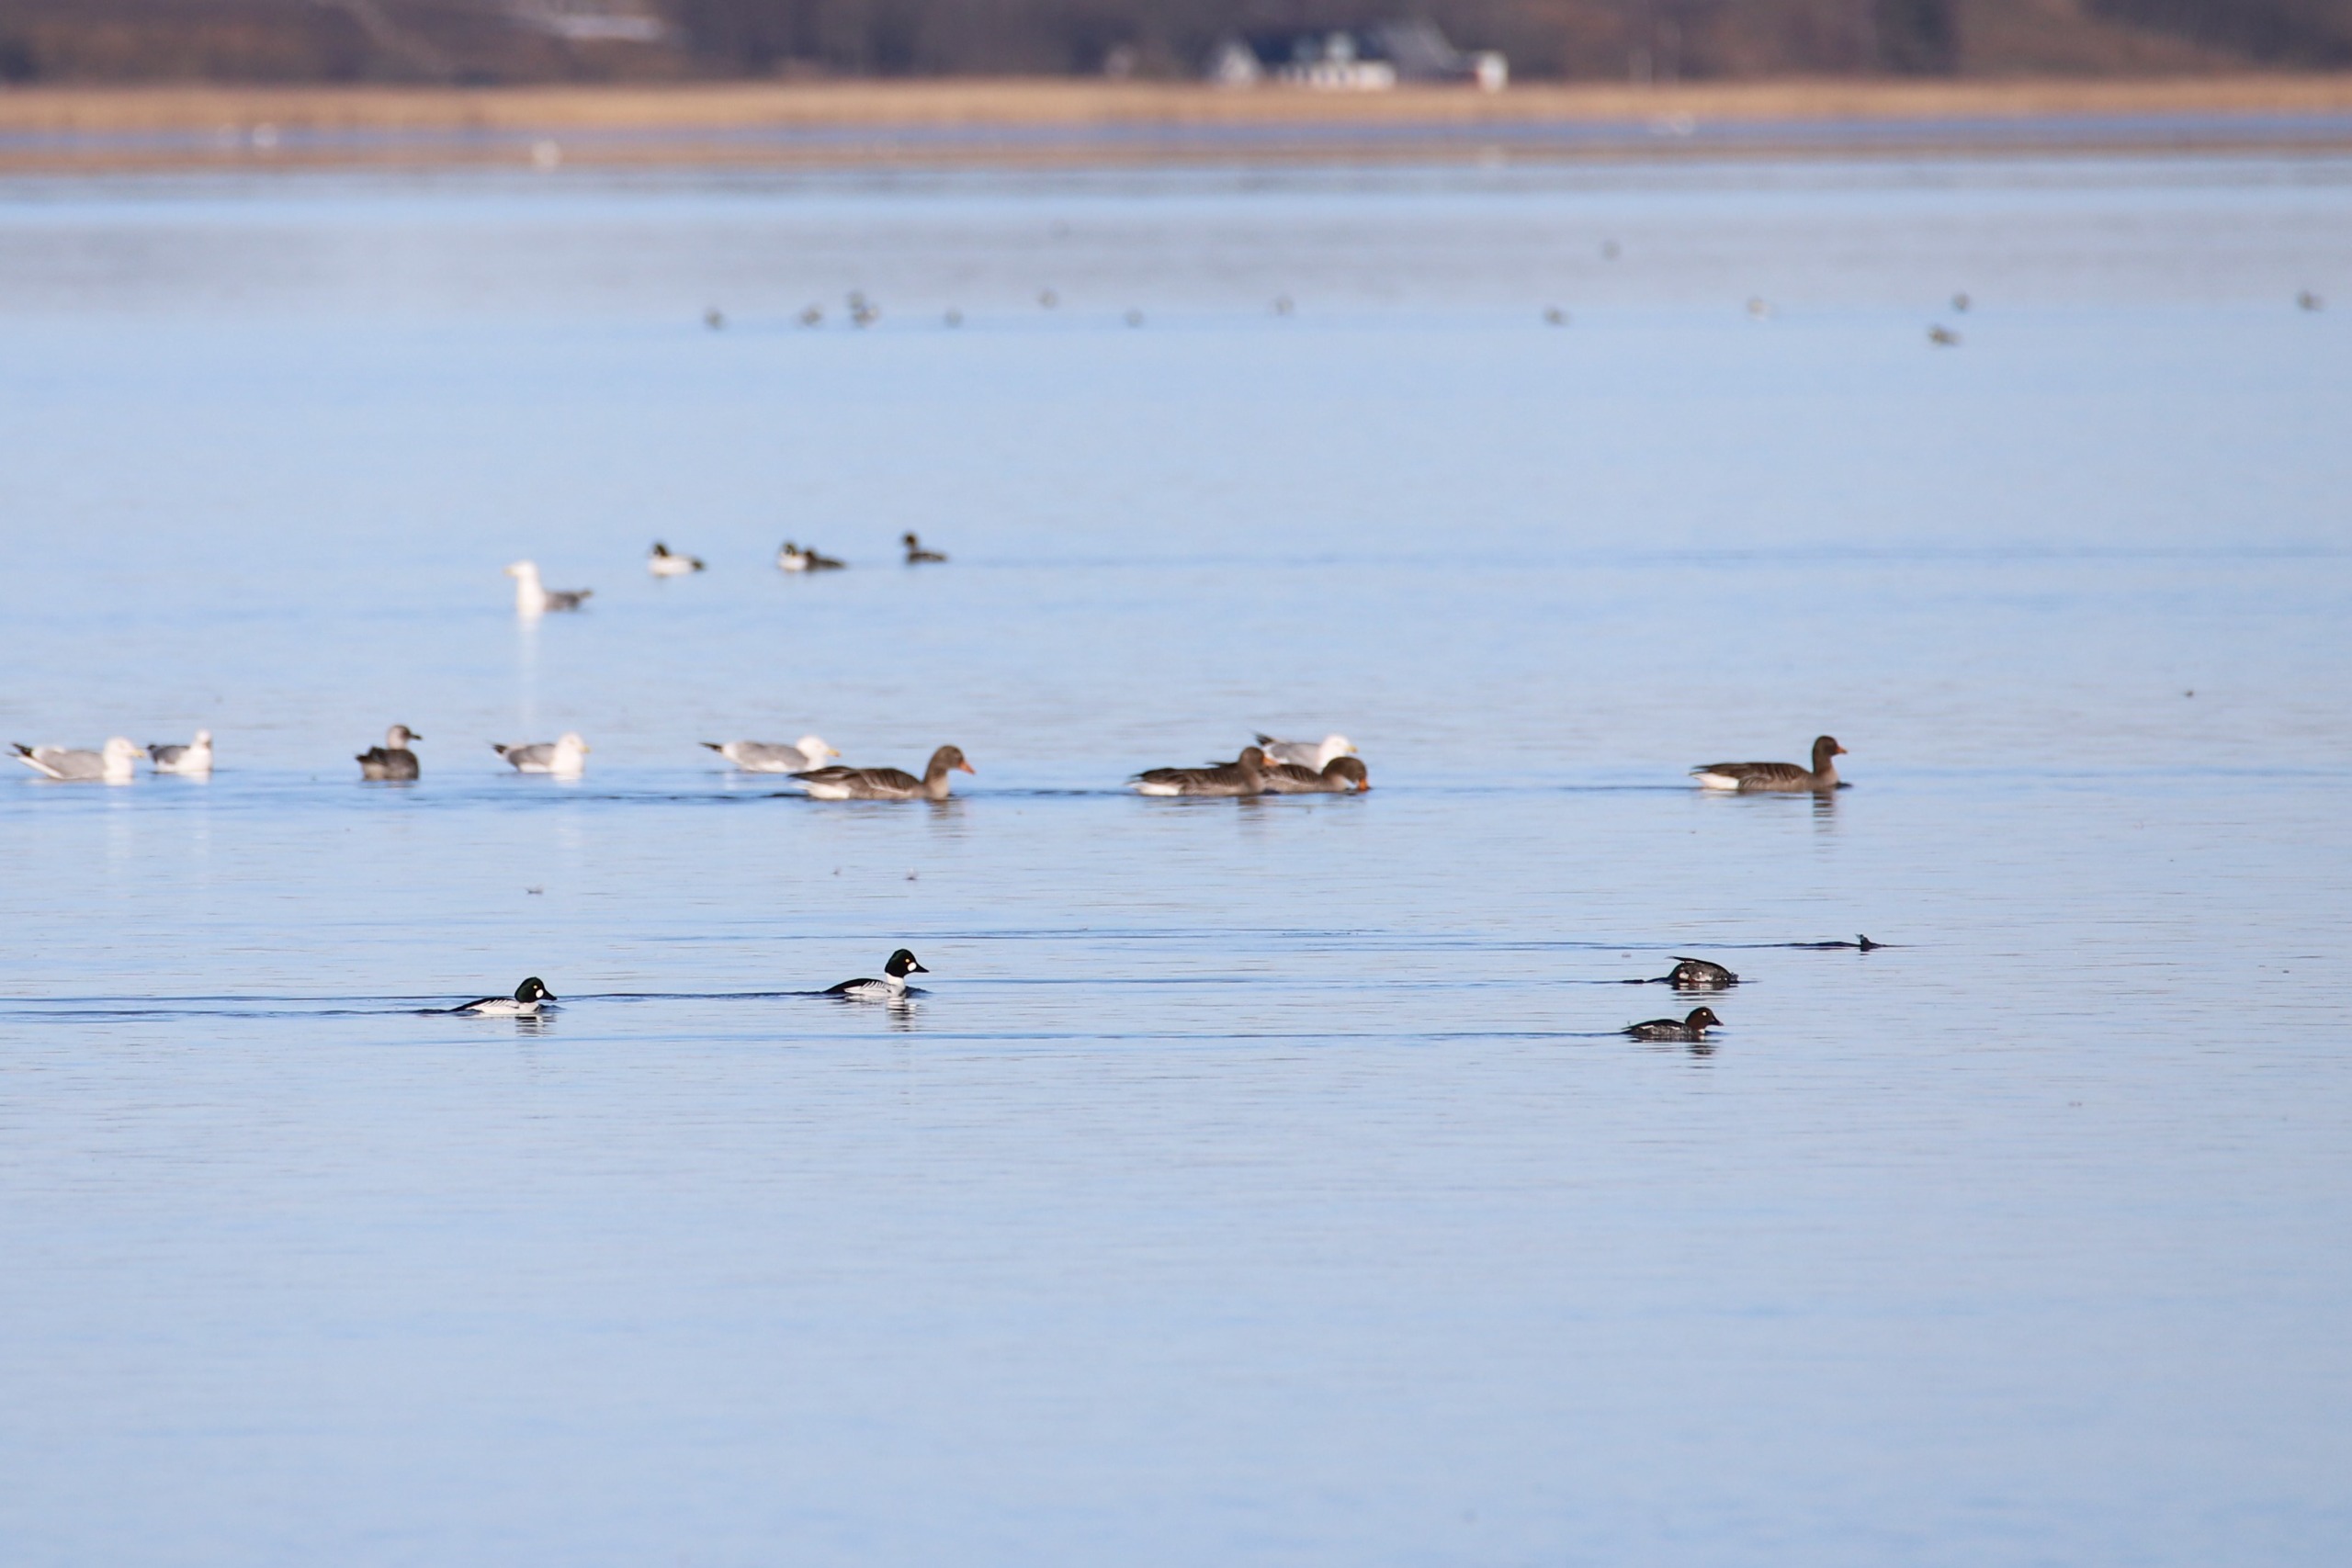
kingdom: Animalia
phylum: Chordata
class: Aves
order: Anseriformes
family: Anatidae
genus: Bucephala
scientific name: Bucephala clangula
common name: Hvinand
